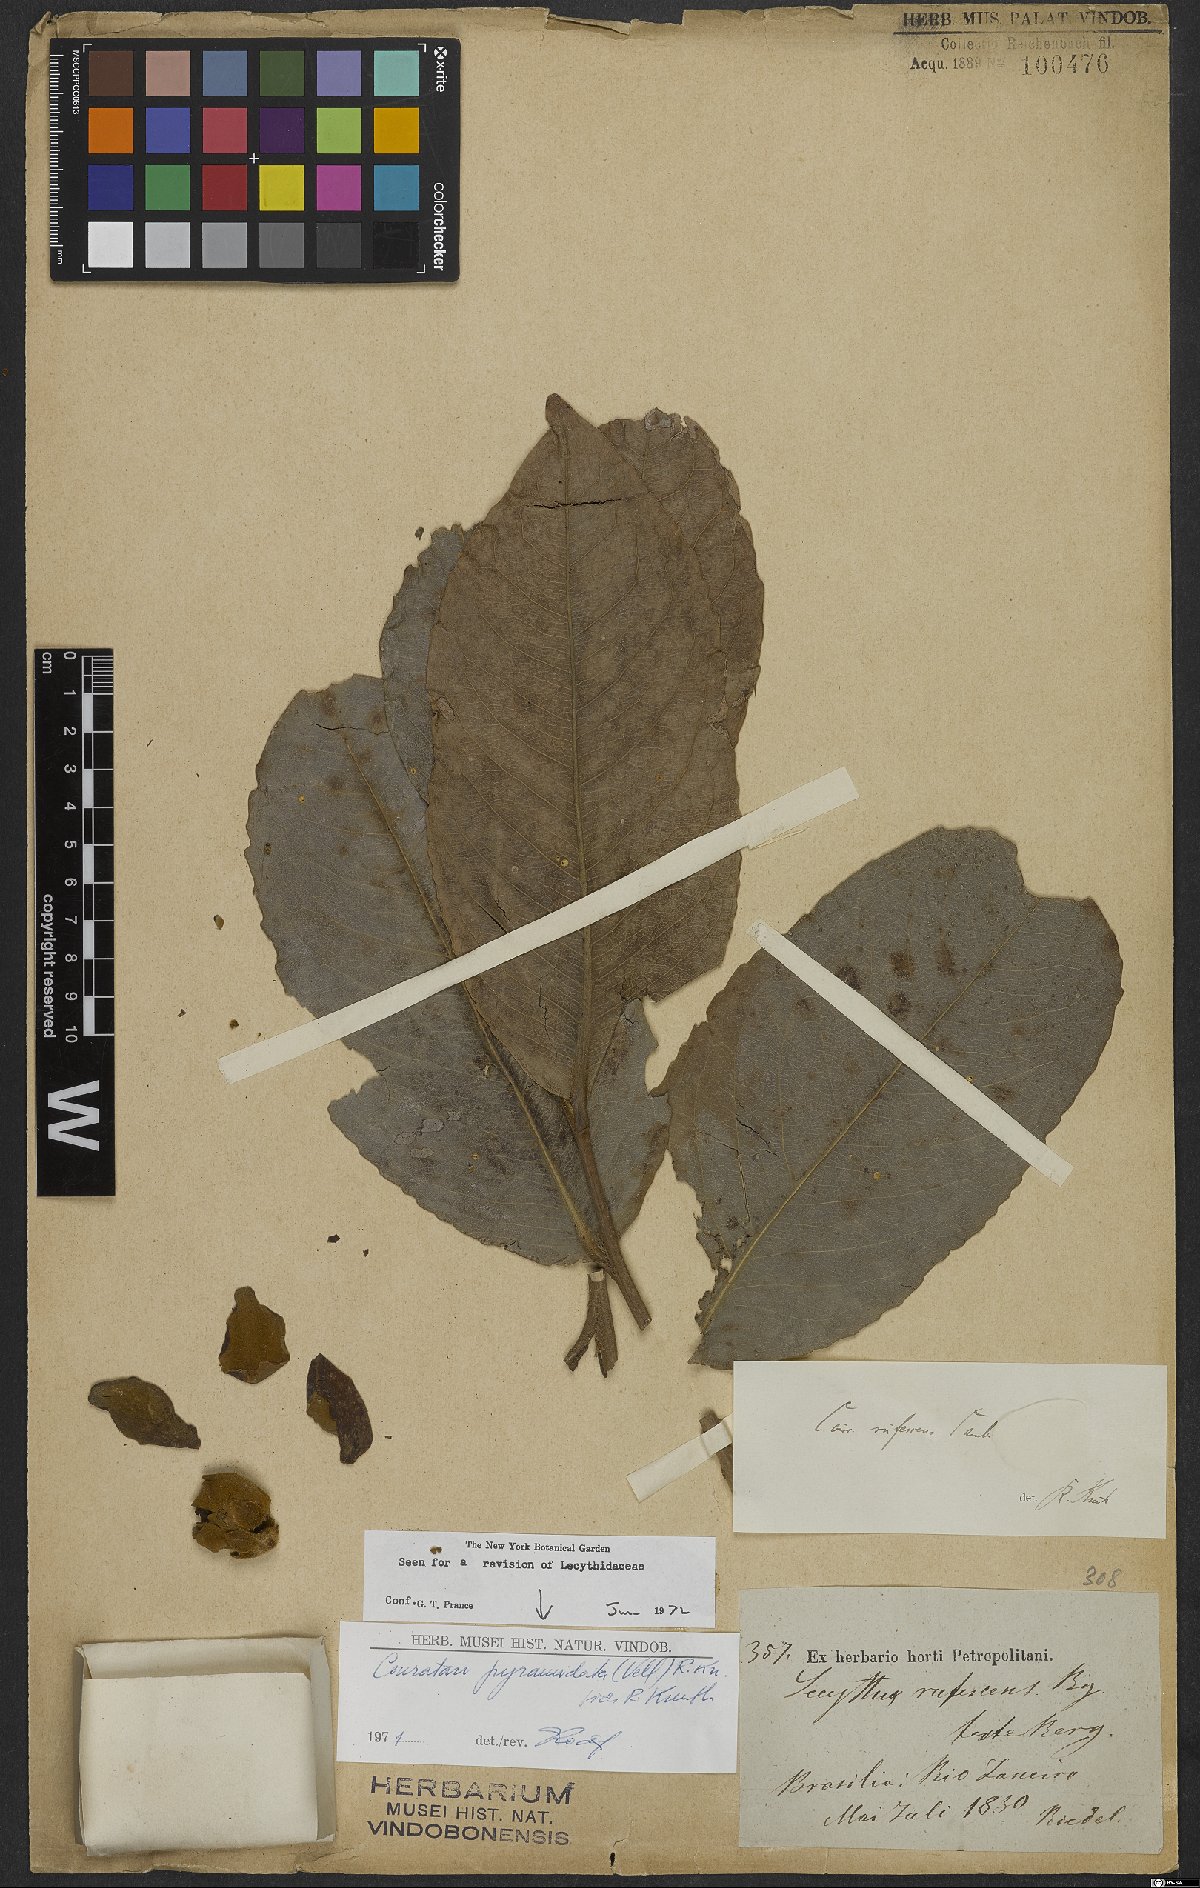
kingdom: Plantae
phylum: Tracheophyta
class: Magnoliopsida
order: Ericales
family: Lecythidaceae
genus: Couratari
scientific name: Couratari pyramidata
